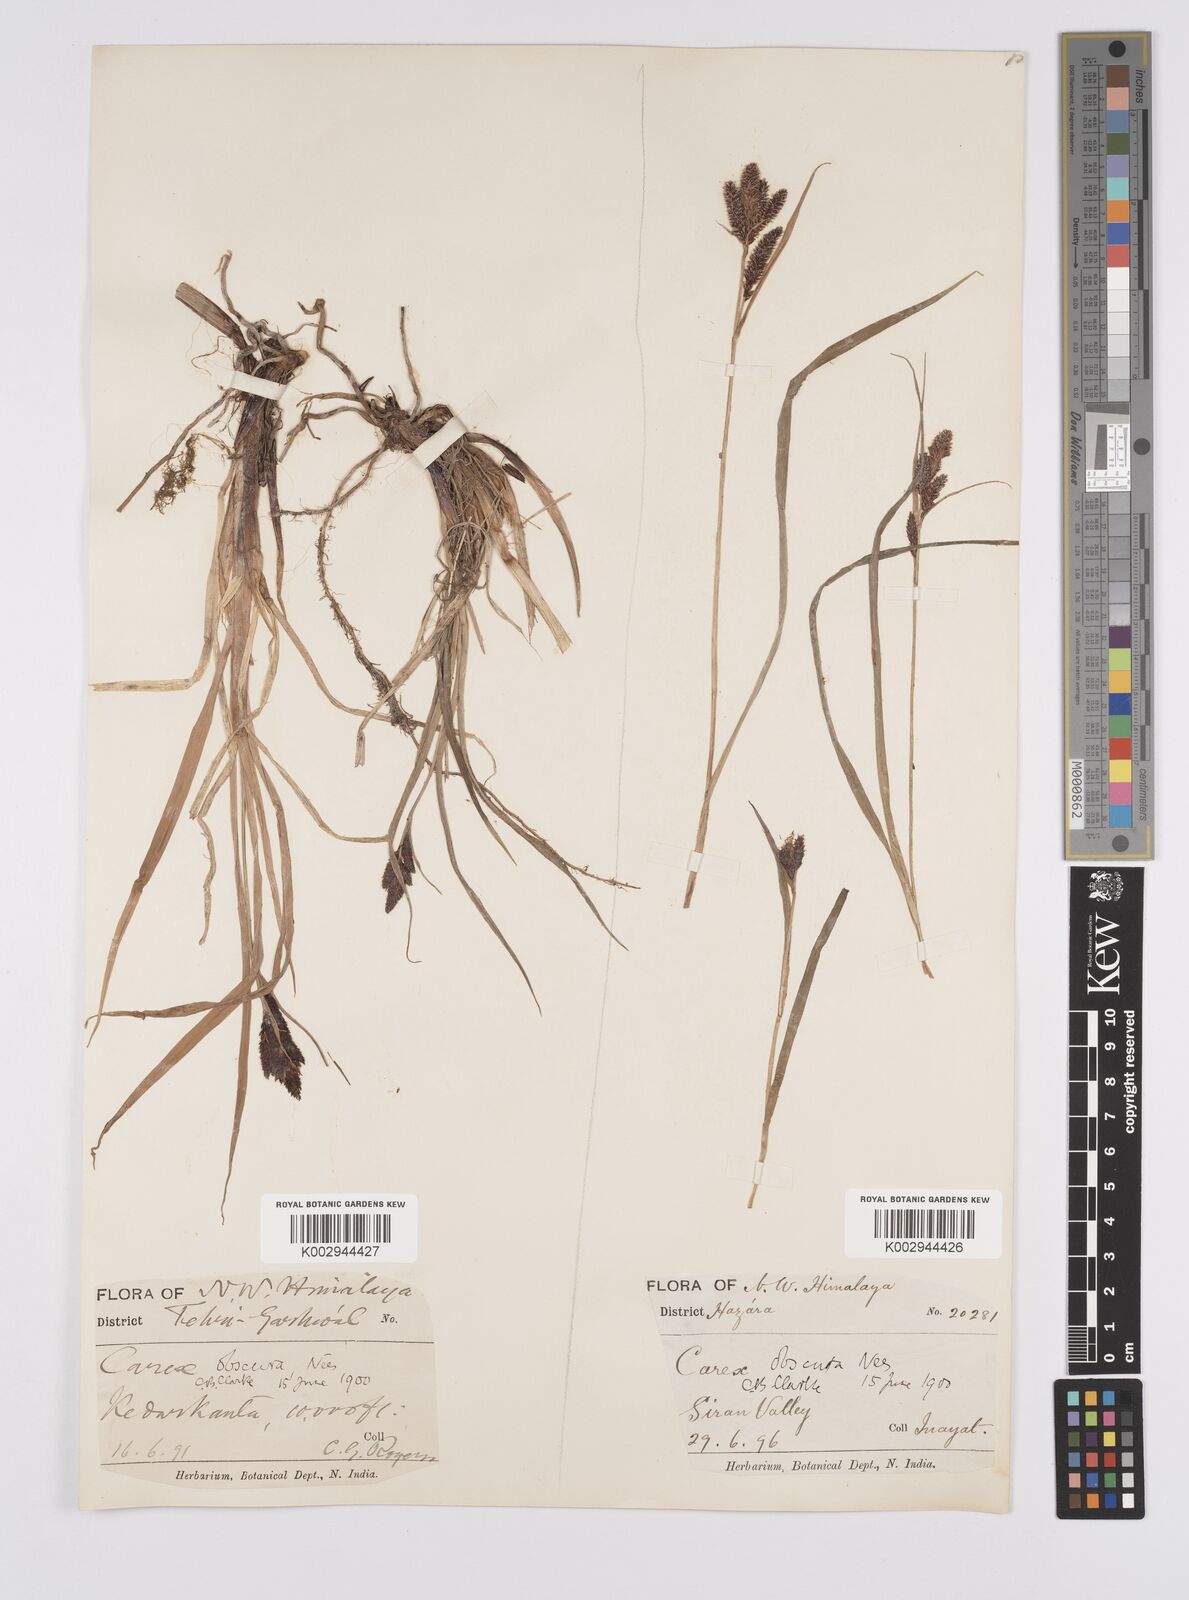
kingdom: Plantae
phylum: Tracheophyta
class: Liliopsida
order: Poales
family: Cyperaceae
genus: Carex
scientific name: Carex obscura
